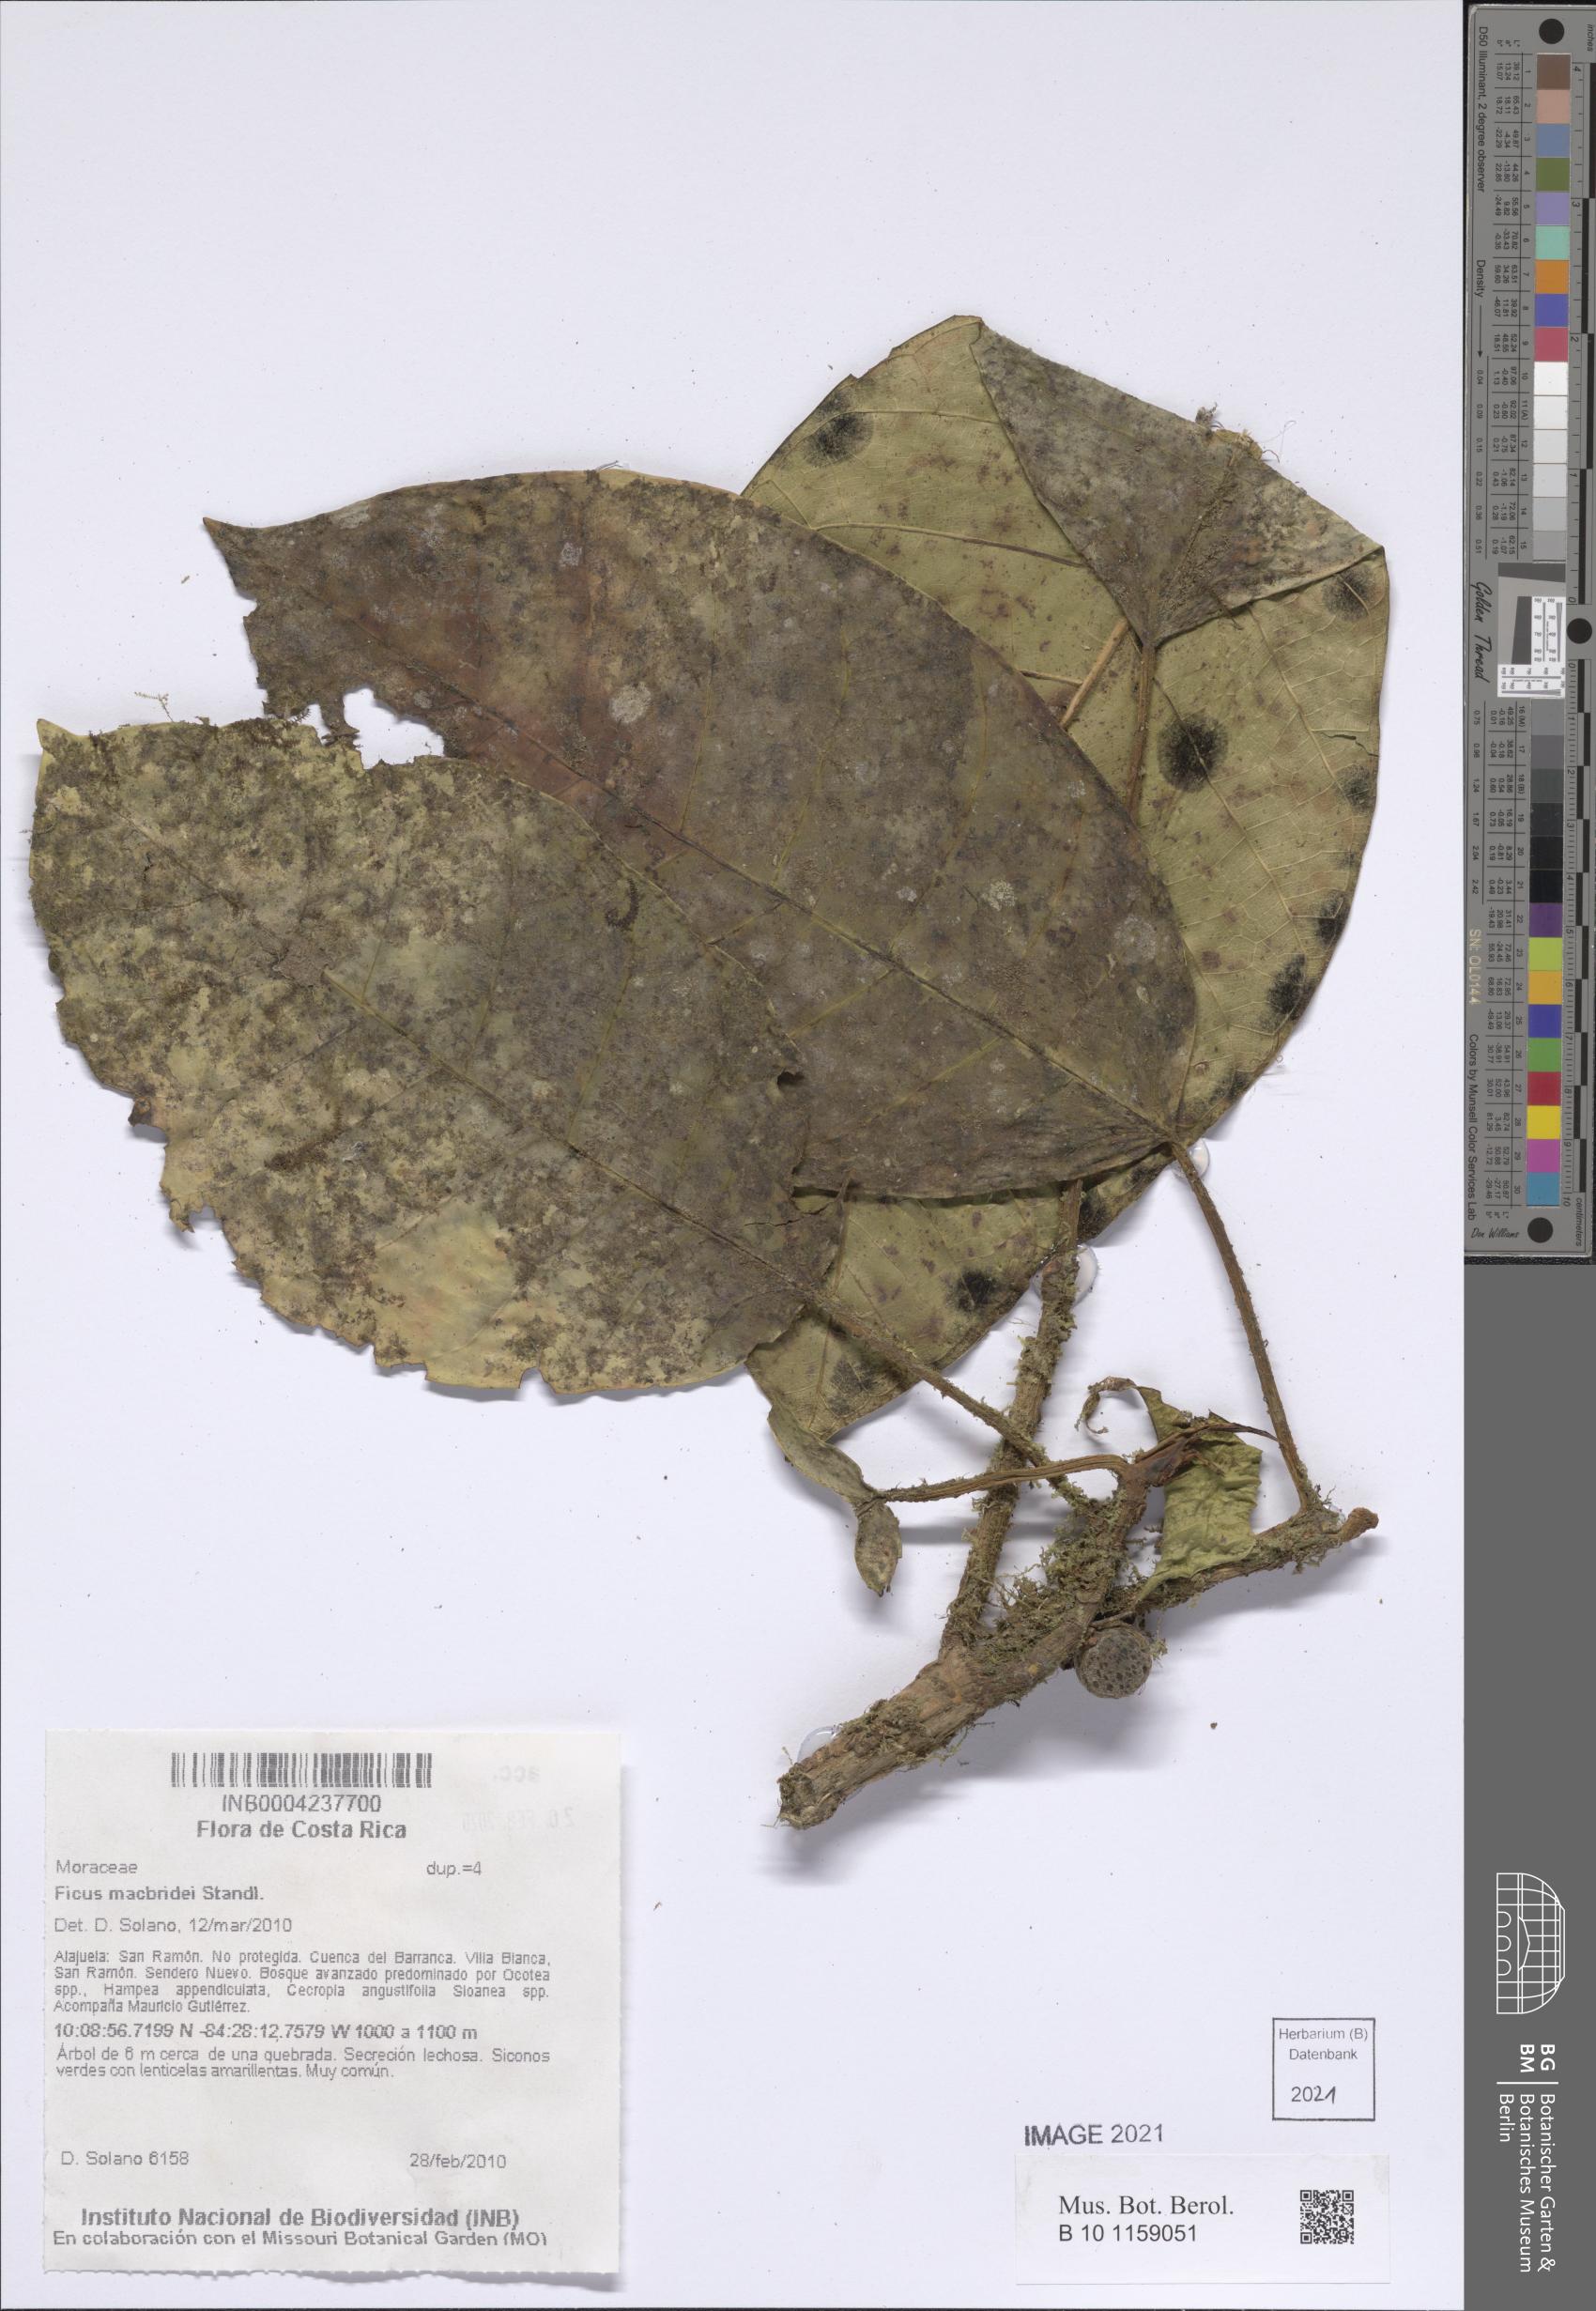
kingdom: Plantae
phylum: Tracheophyta
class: Magnoliopsida
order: Rosales
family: Moraceae
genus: Ficus
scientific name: Ficus macbridei
